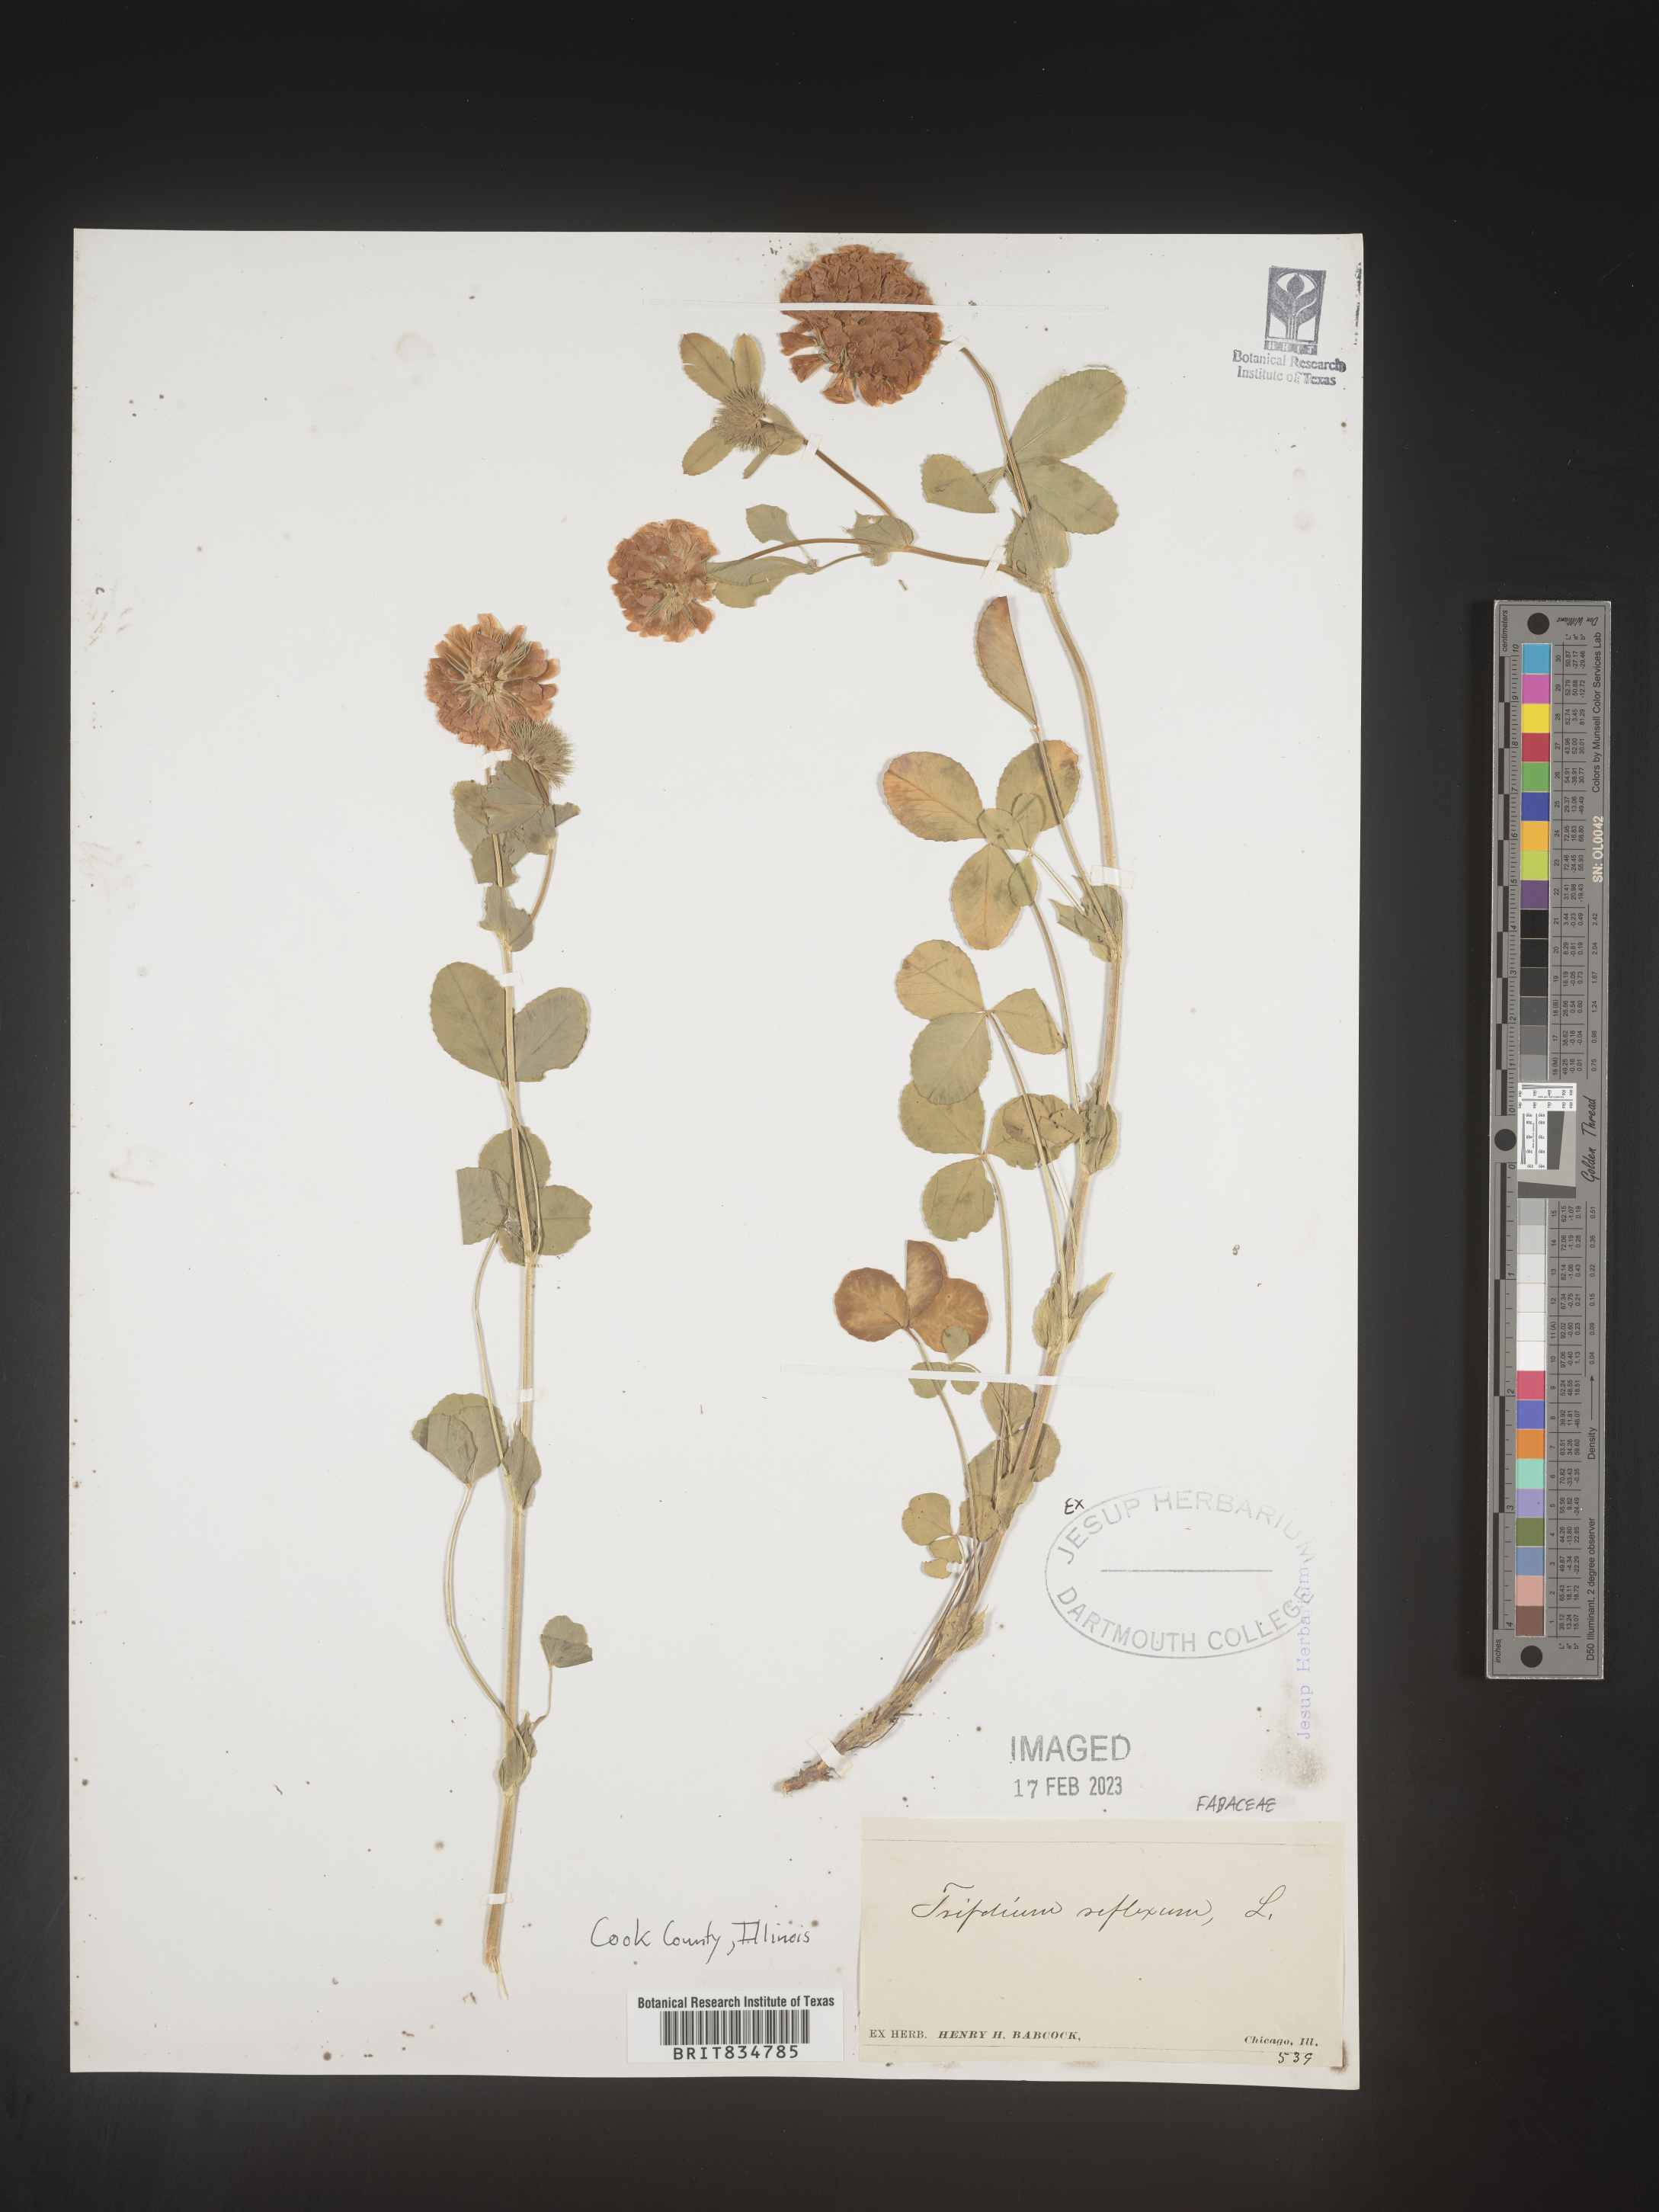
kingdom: Plantae
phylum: Tracheophyta
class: Magnoliopsida
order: Fabales
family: Fabaceae
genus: Trifolium
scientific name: Trifolium reflexum
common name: Buffalo clover
